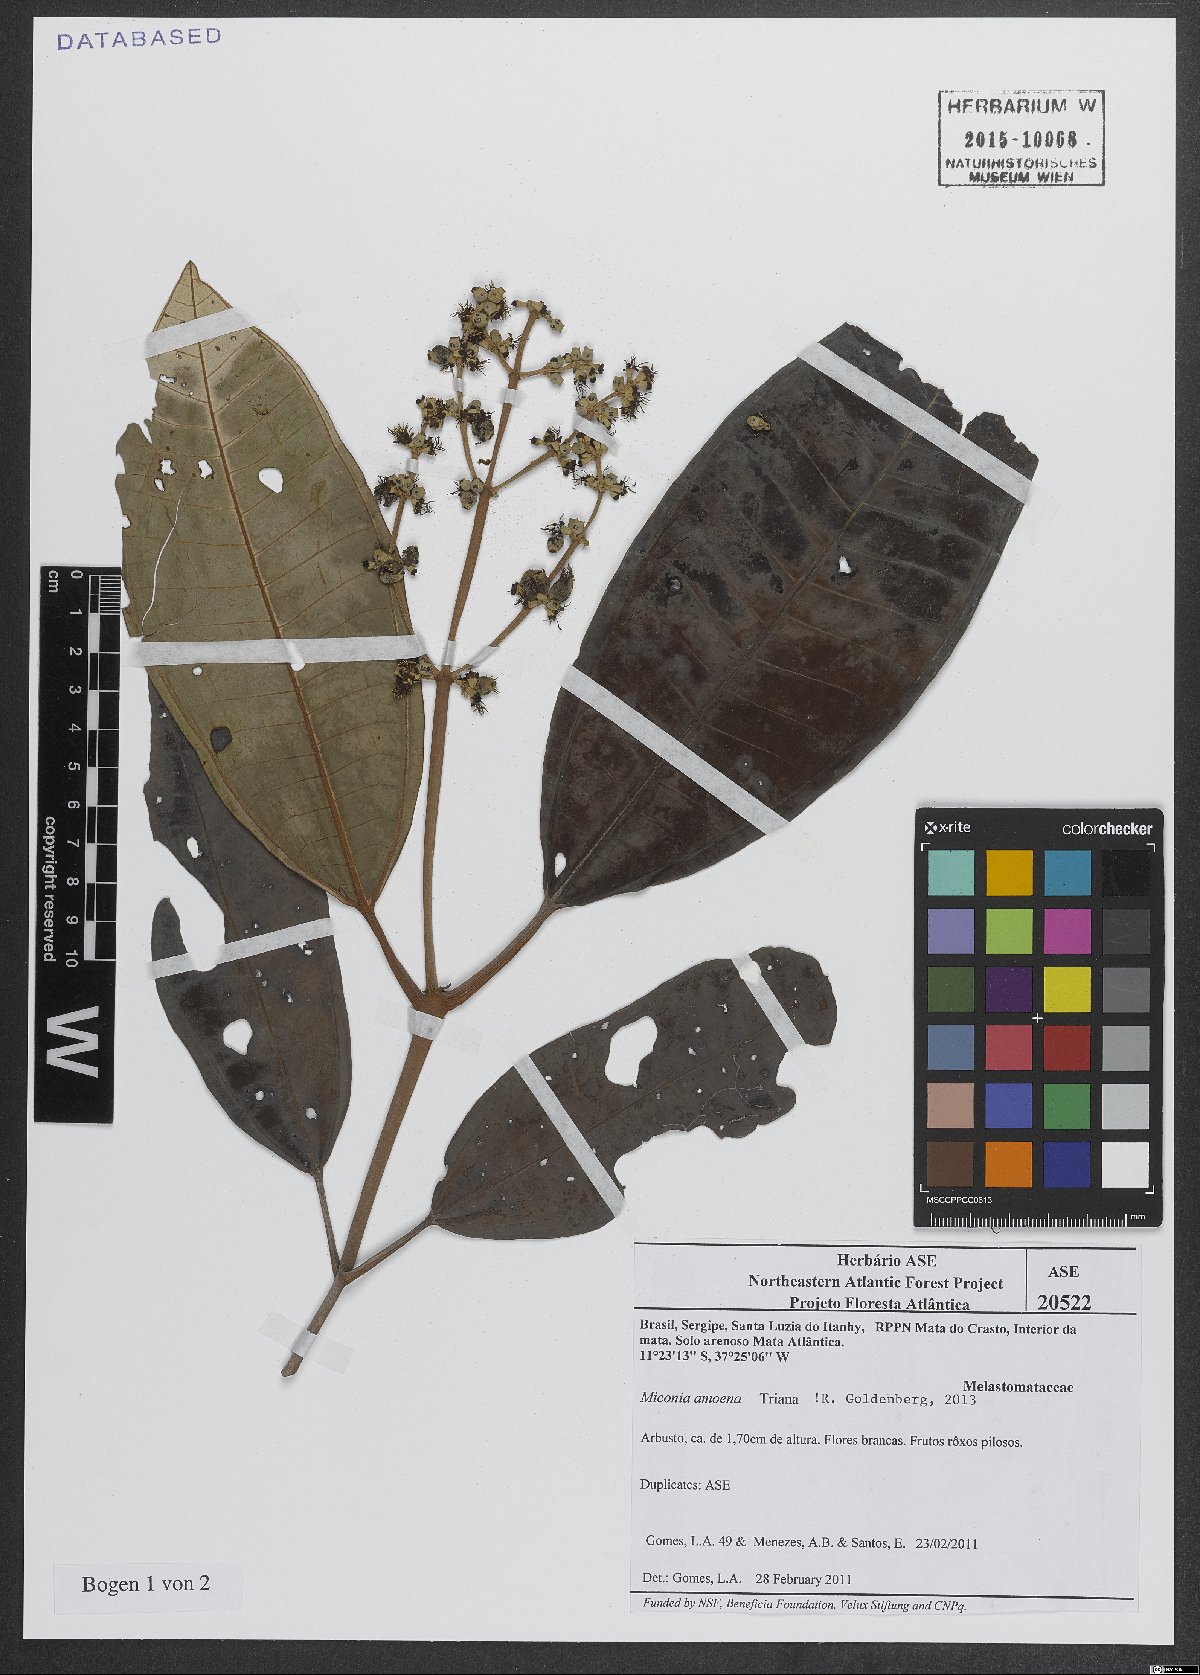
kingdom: Plantae
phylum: Tracheophyta
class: Magnoliopsida
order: Myrtales
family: Melastomataceae
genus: Miconia
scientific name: Miconia amoena
